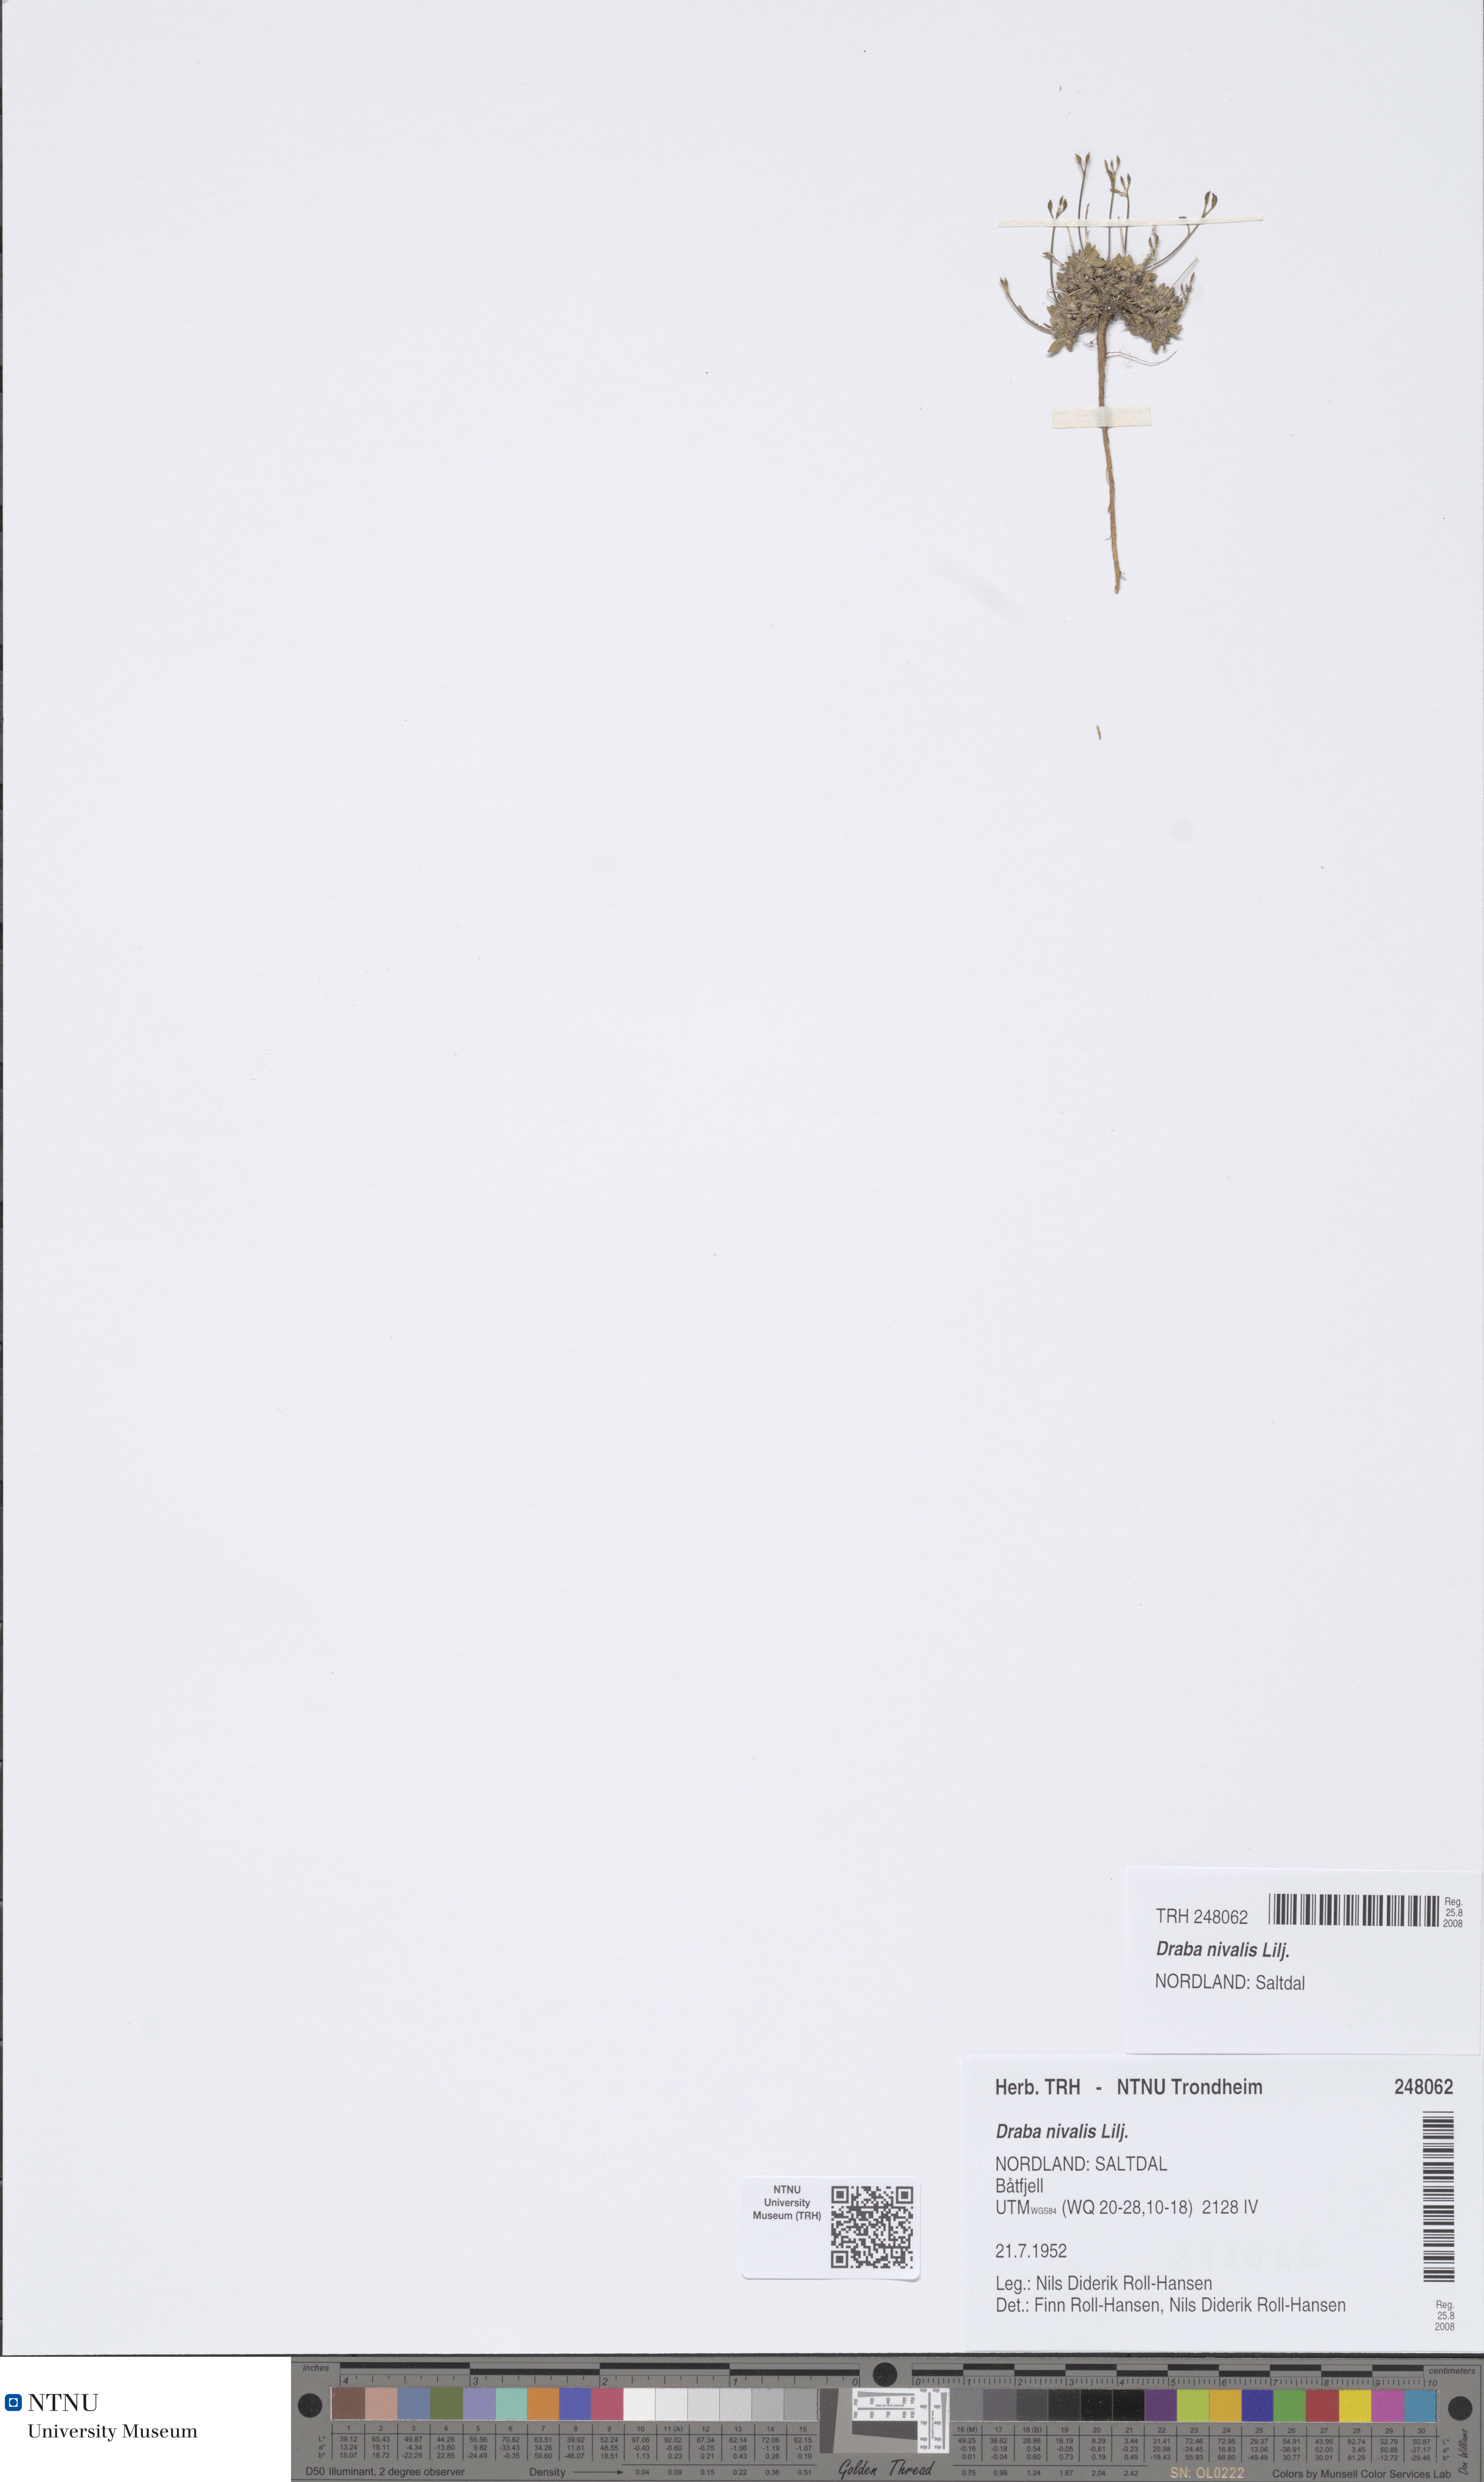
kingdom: Plantae
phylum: Tracheophyta
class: Magnoliopsida
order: Brassicales
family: Brassicaceae
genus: Draba
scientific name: Draba nivalis
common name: Snow draba
